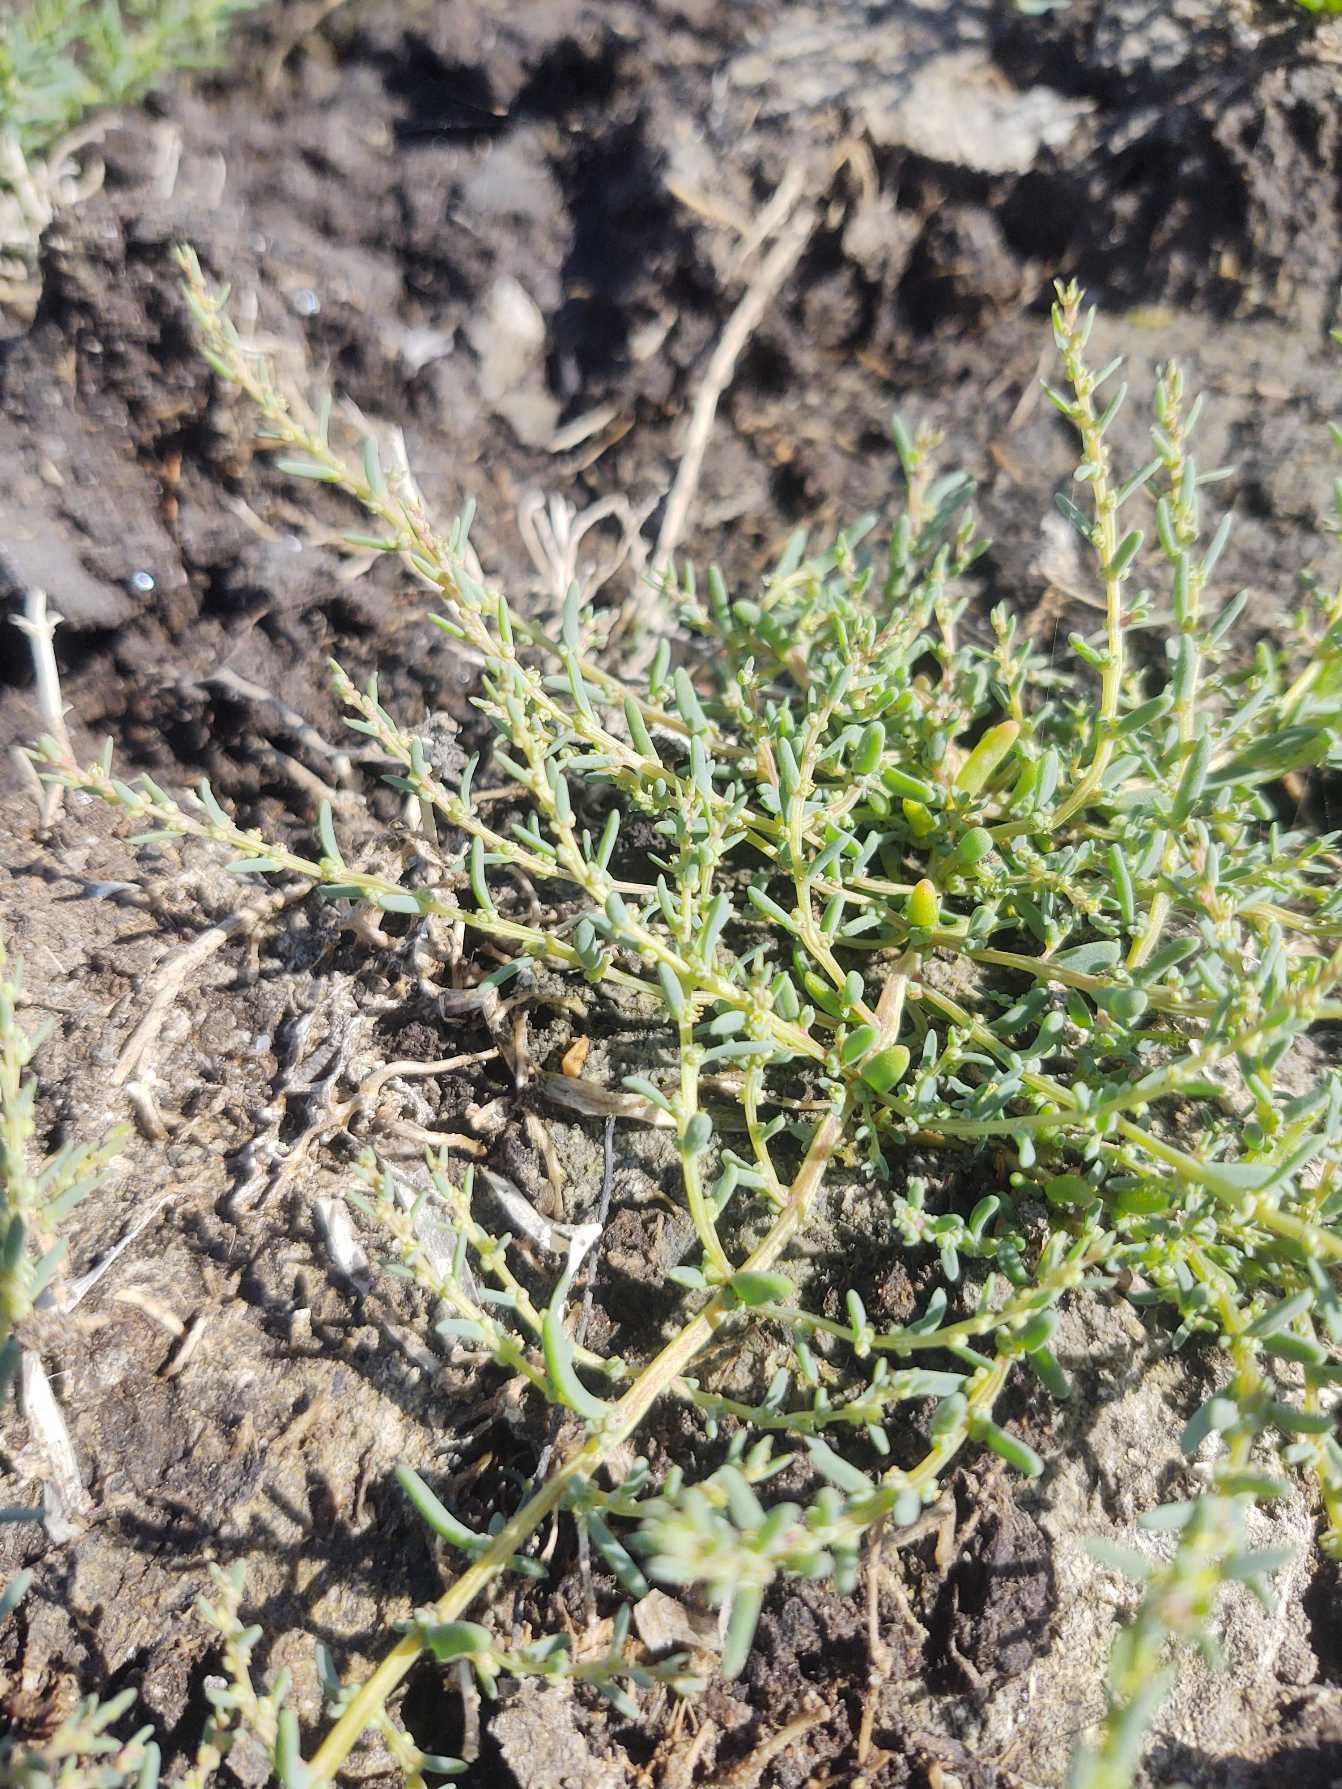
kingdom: Plantae
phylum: Tracheophyta
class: Magnoliopsida
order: Caryophyllales
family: Amaranthaceae
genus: Suaeda
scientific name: Suaeda maritima
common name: Strandgåsefod
